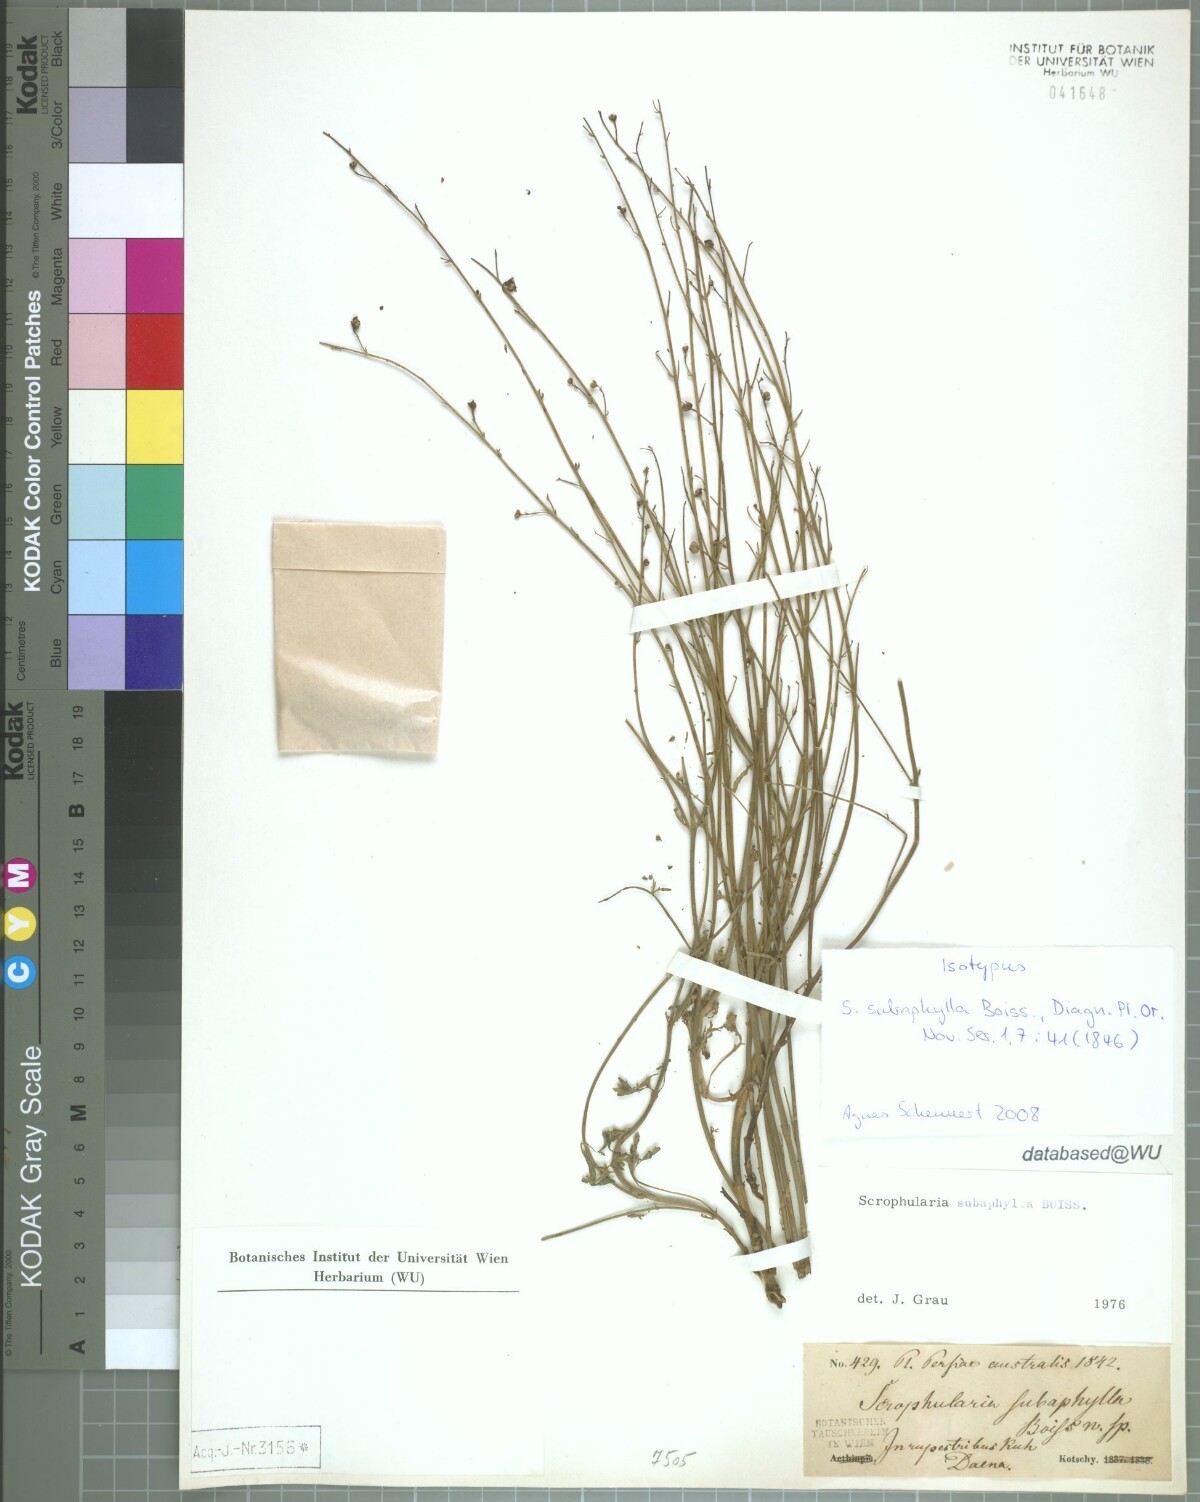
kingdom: Plantae
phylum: Tracheophyta
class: Magnoliopsida
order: Lamiales
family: Scrophulariaceae
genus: Scrophularia
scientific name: Scrophularia subaphylla
